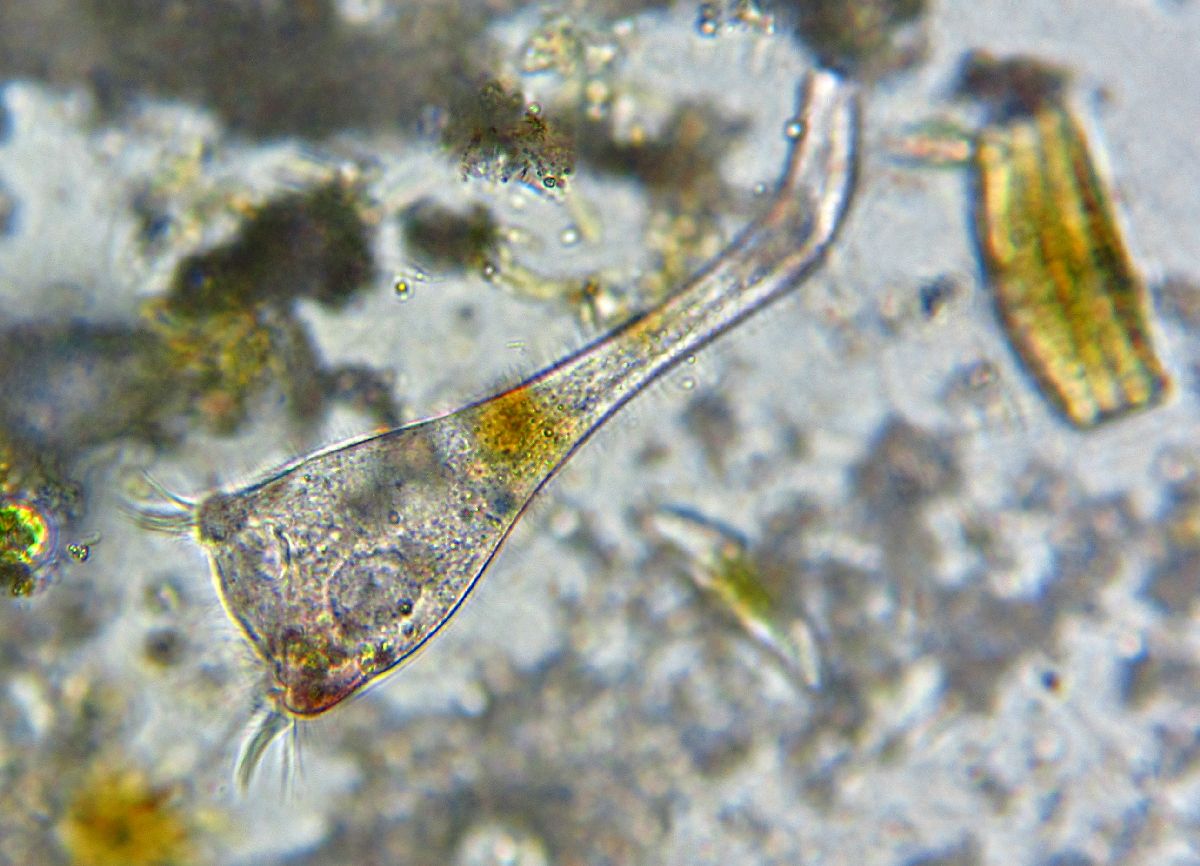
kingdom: Chromista
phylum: Ciliophora
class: Heterotrichea
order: Heterotrichida
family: Stentoridae
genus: Stentor
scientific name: Stentor igneus
